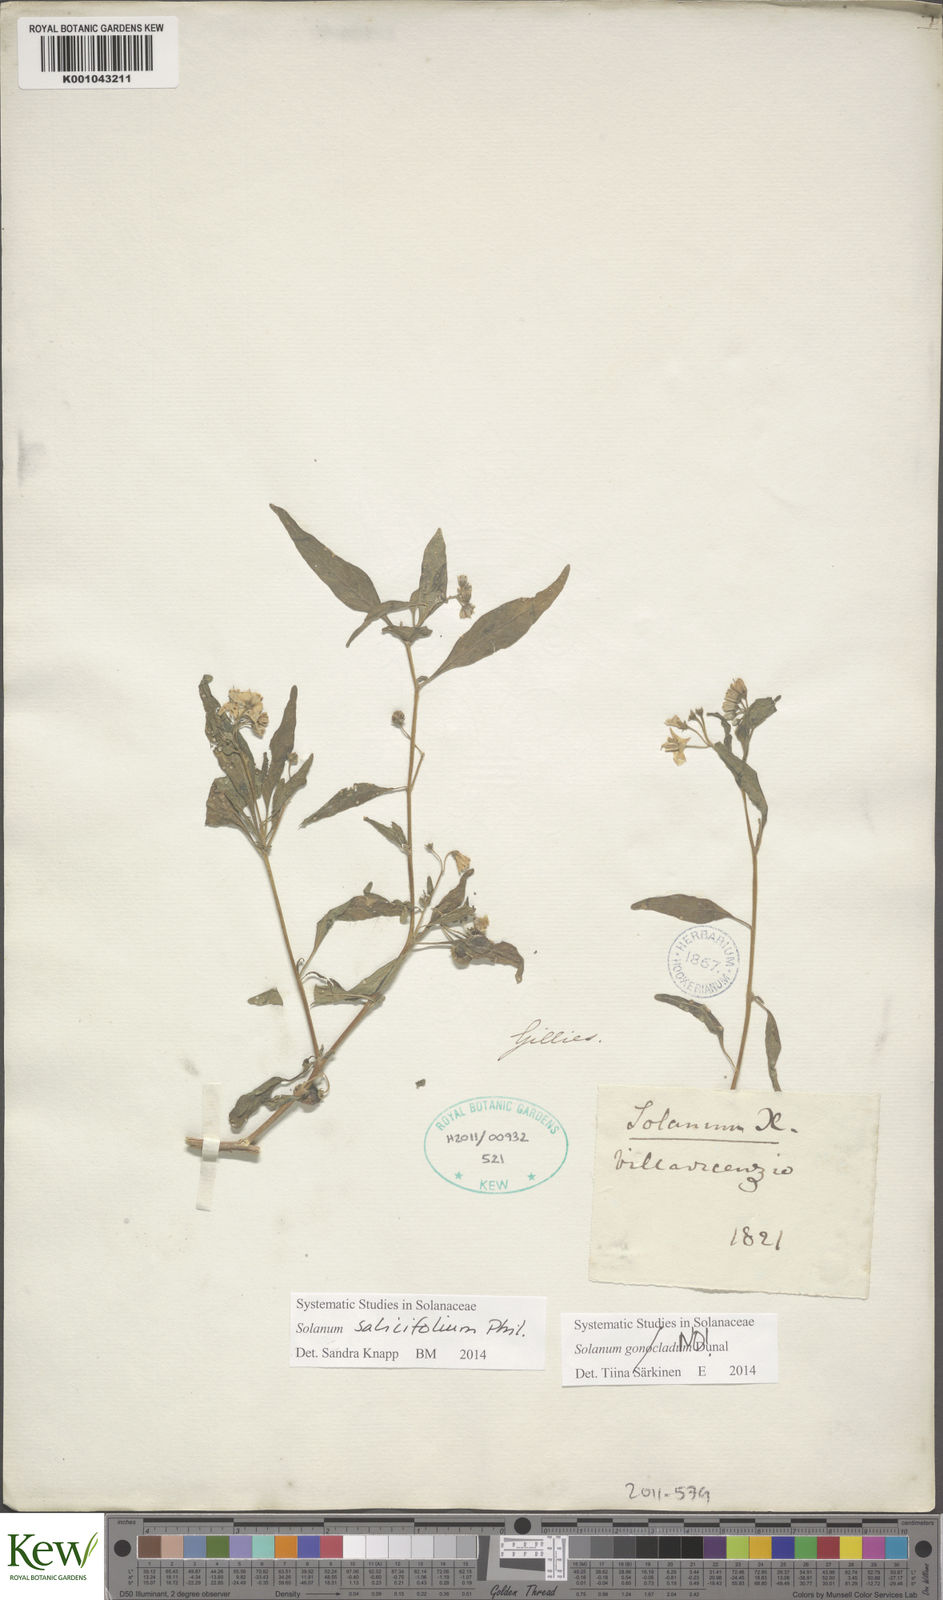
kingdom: Plantae
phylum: Tracheophyta
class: Magnoliopsida
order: Solanales
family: Solanaceae
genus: Solanum
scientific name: Solanum salicifolium
